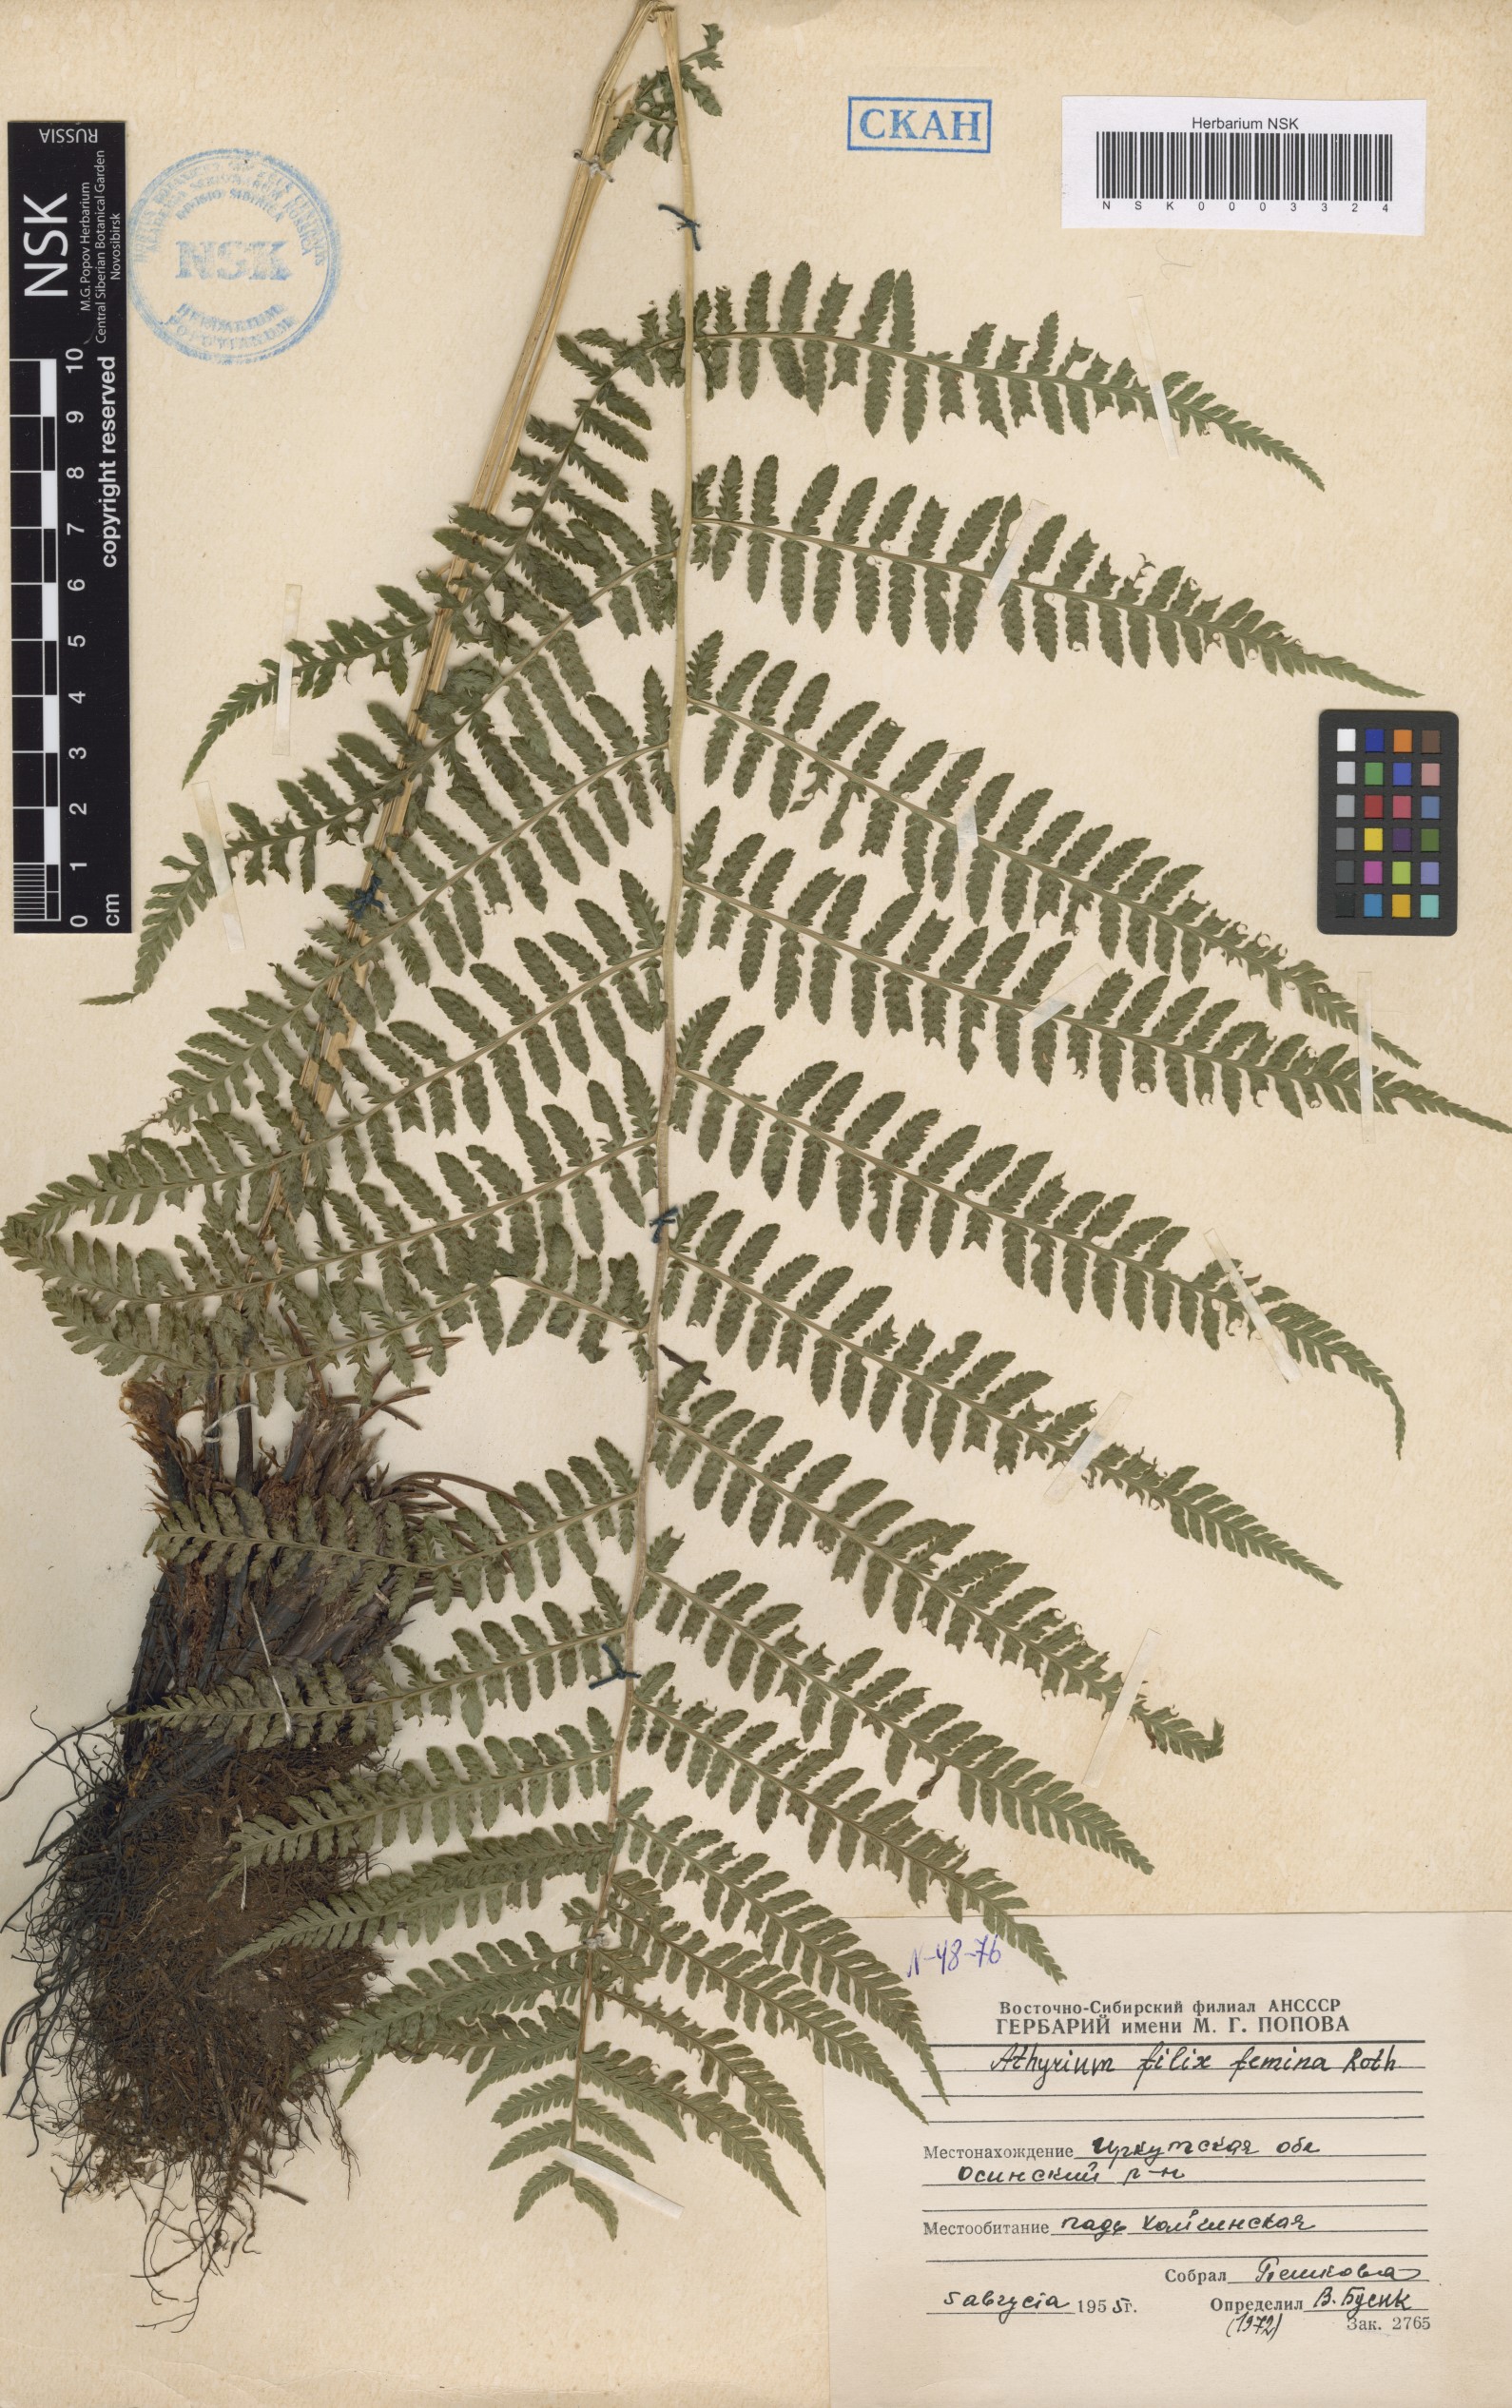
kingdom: Plantae
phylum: Tracheophyta
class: Polypodiopsida
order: Polypodiales
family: Athyriaceae
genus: Athyrium
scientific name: Athyrium filix-femina
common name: Lady fern
